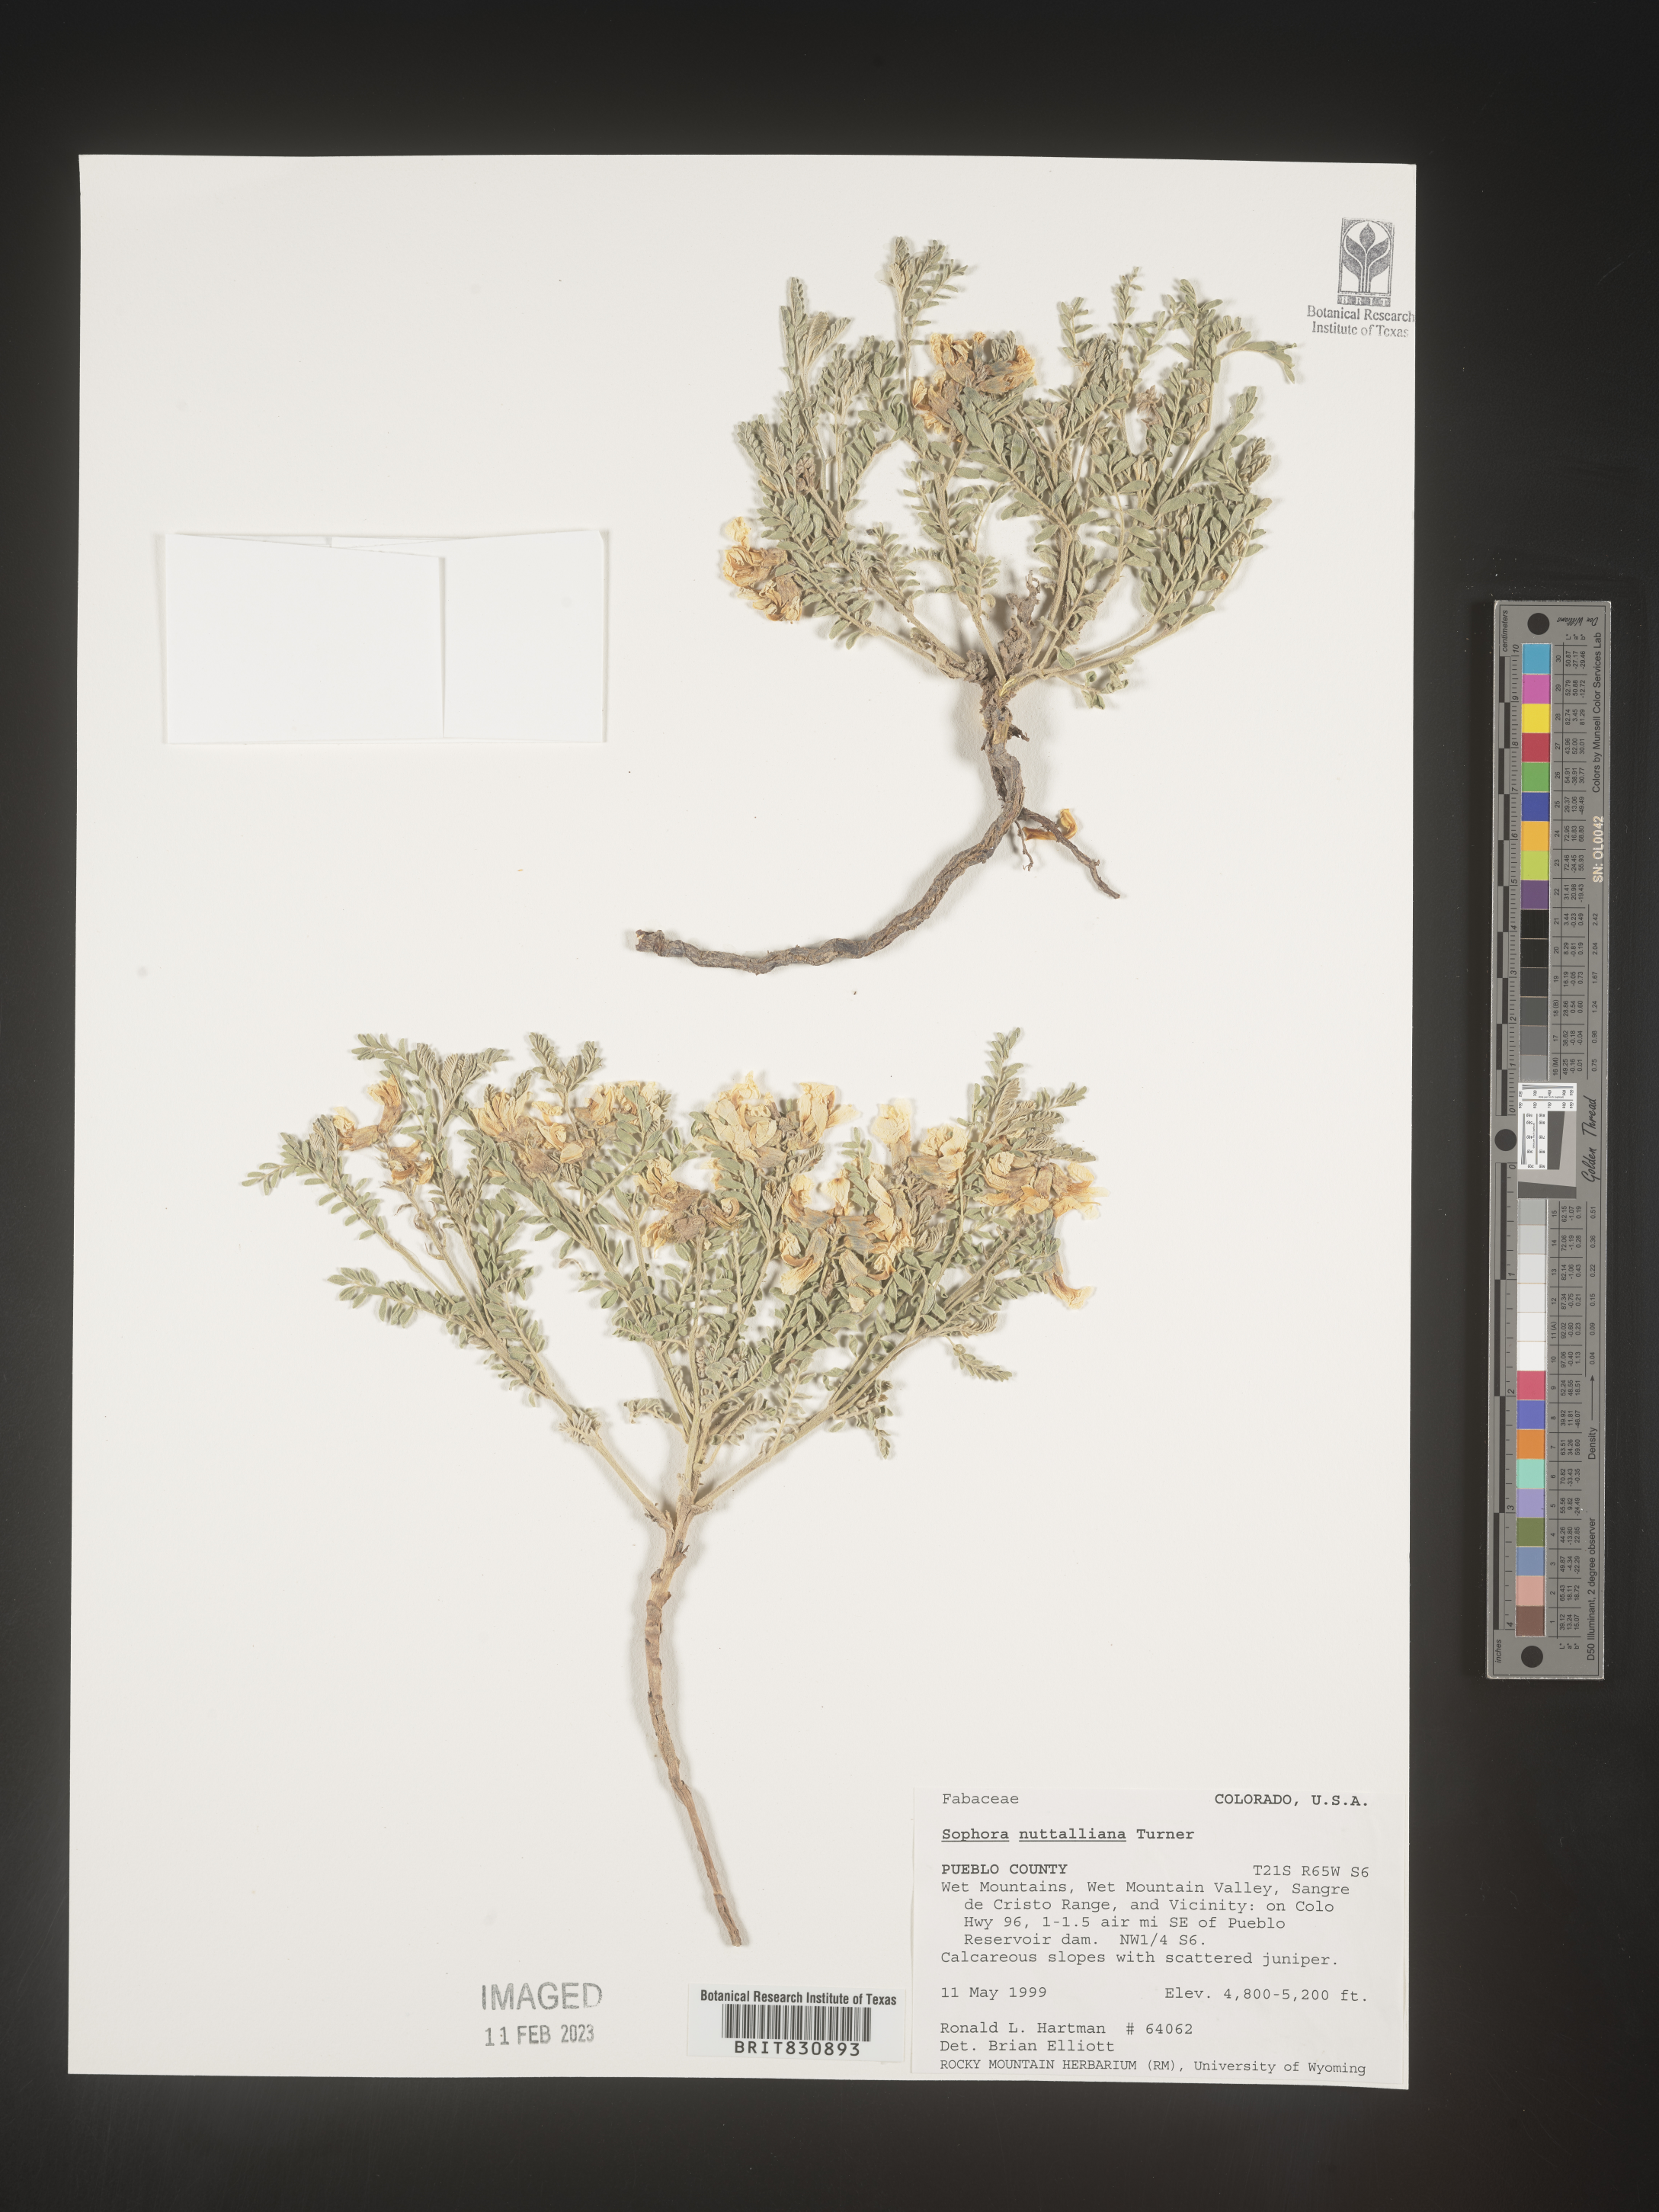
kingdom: Plantae
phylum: Tracheophyta
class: Magnoliopsida
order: Fabales
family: Fabaceae
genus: Sophora
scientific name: Sophora nuttalliana
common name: Silky sophora
